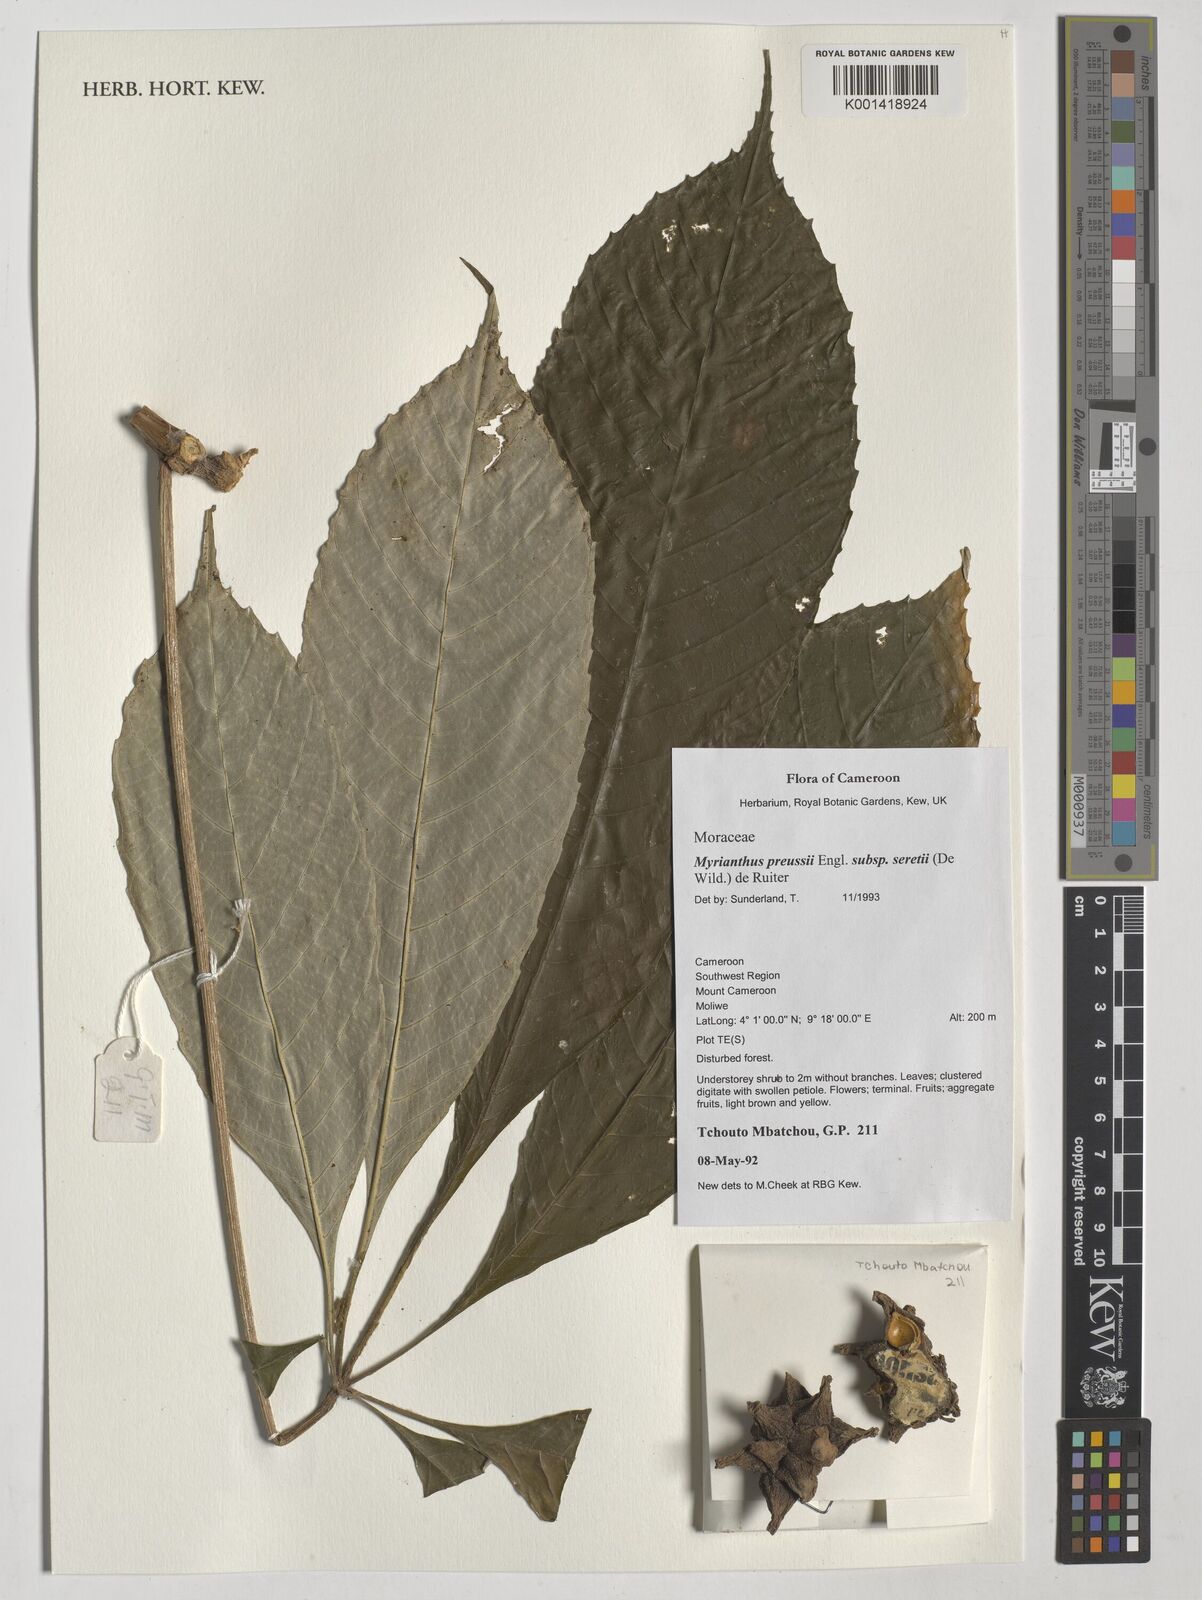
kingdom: Plantae
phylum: Tracheophyta
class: Magnoliopsida
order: Rosales
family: Urticaceae
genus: Myrianthus
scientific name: Myrianthus preussii
